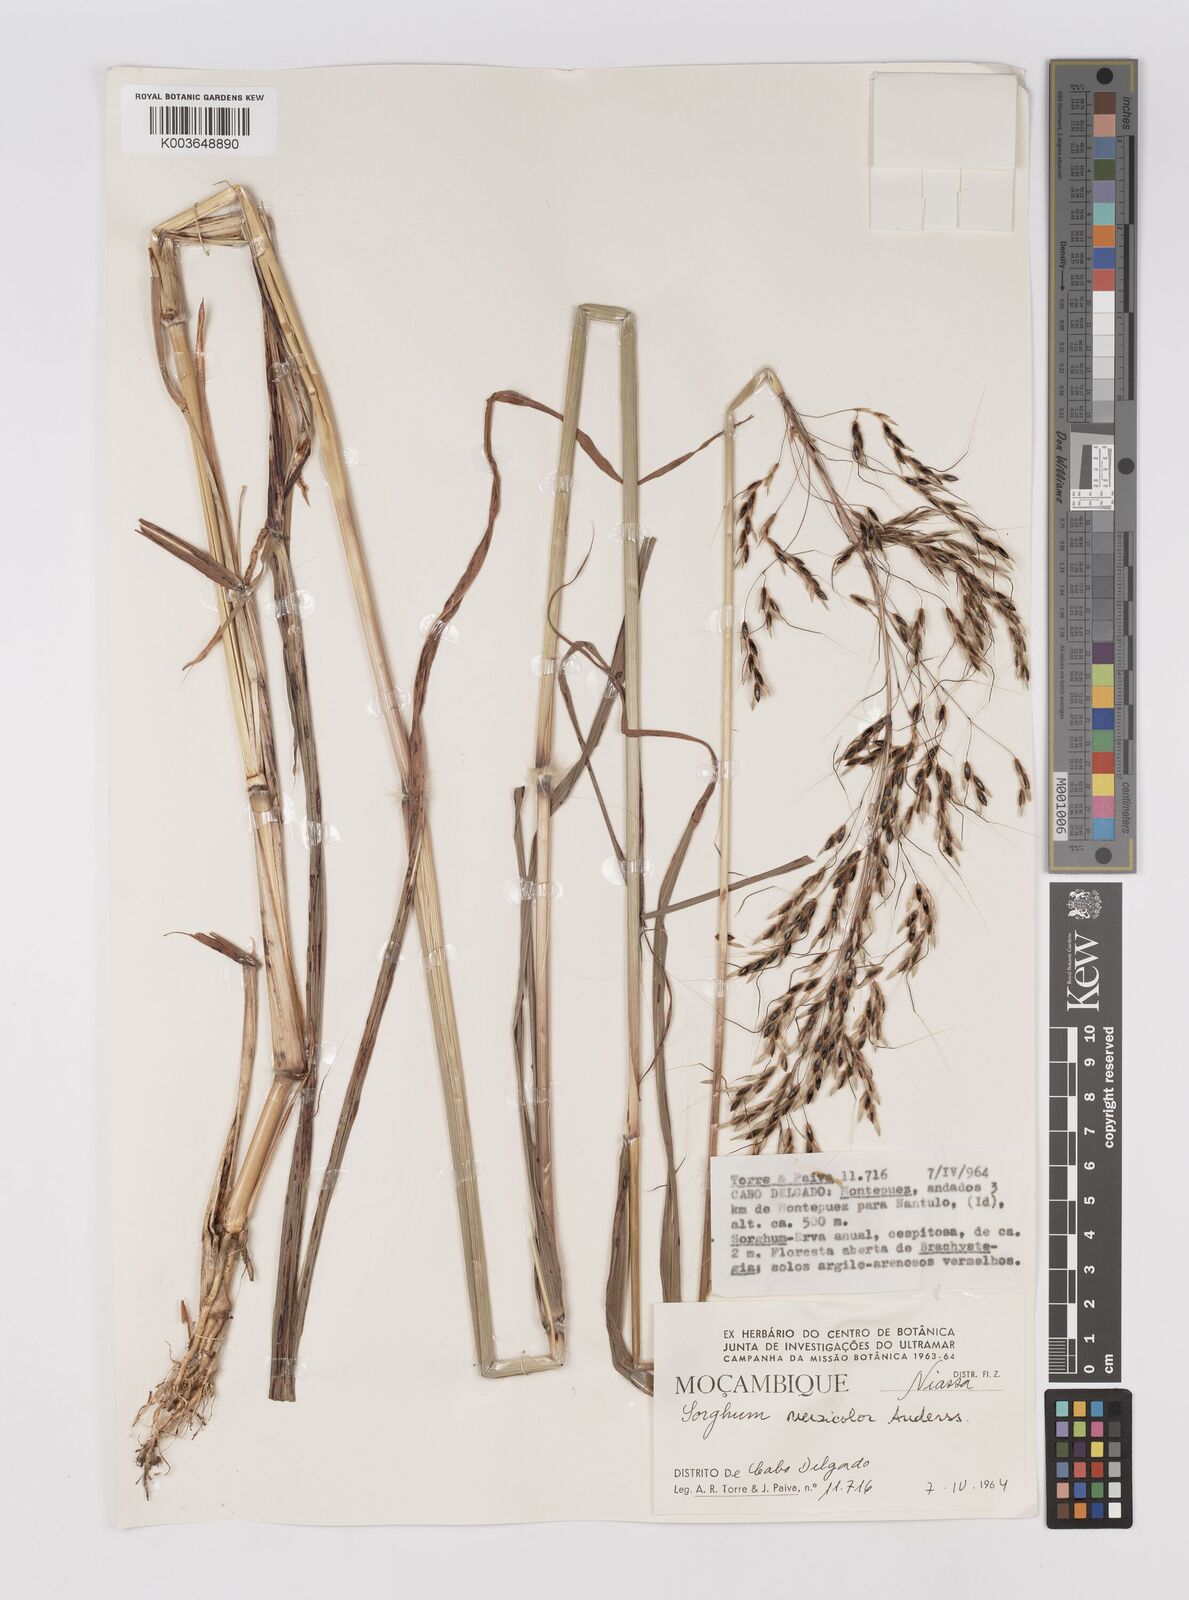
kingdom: Plantae
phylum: Tracheophyta
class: Liliopsida
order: Poales
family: Poaceae
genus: Sarga
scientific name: Sarga versicolor
